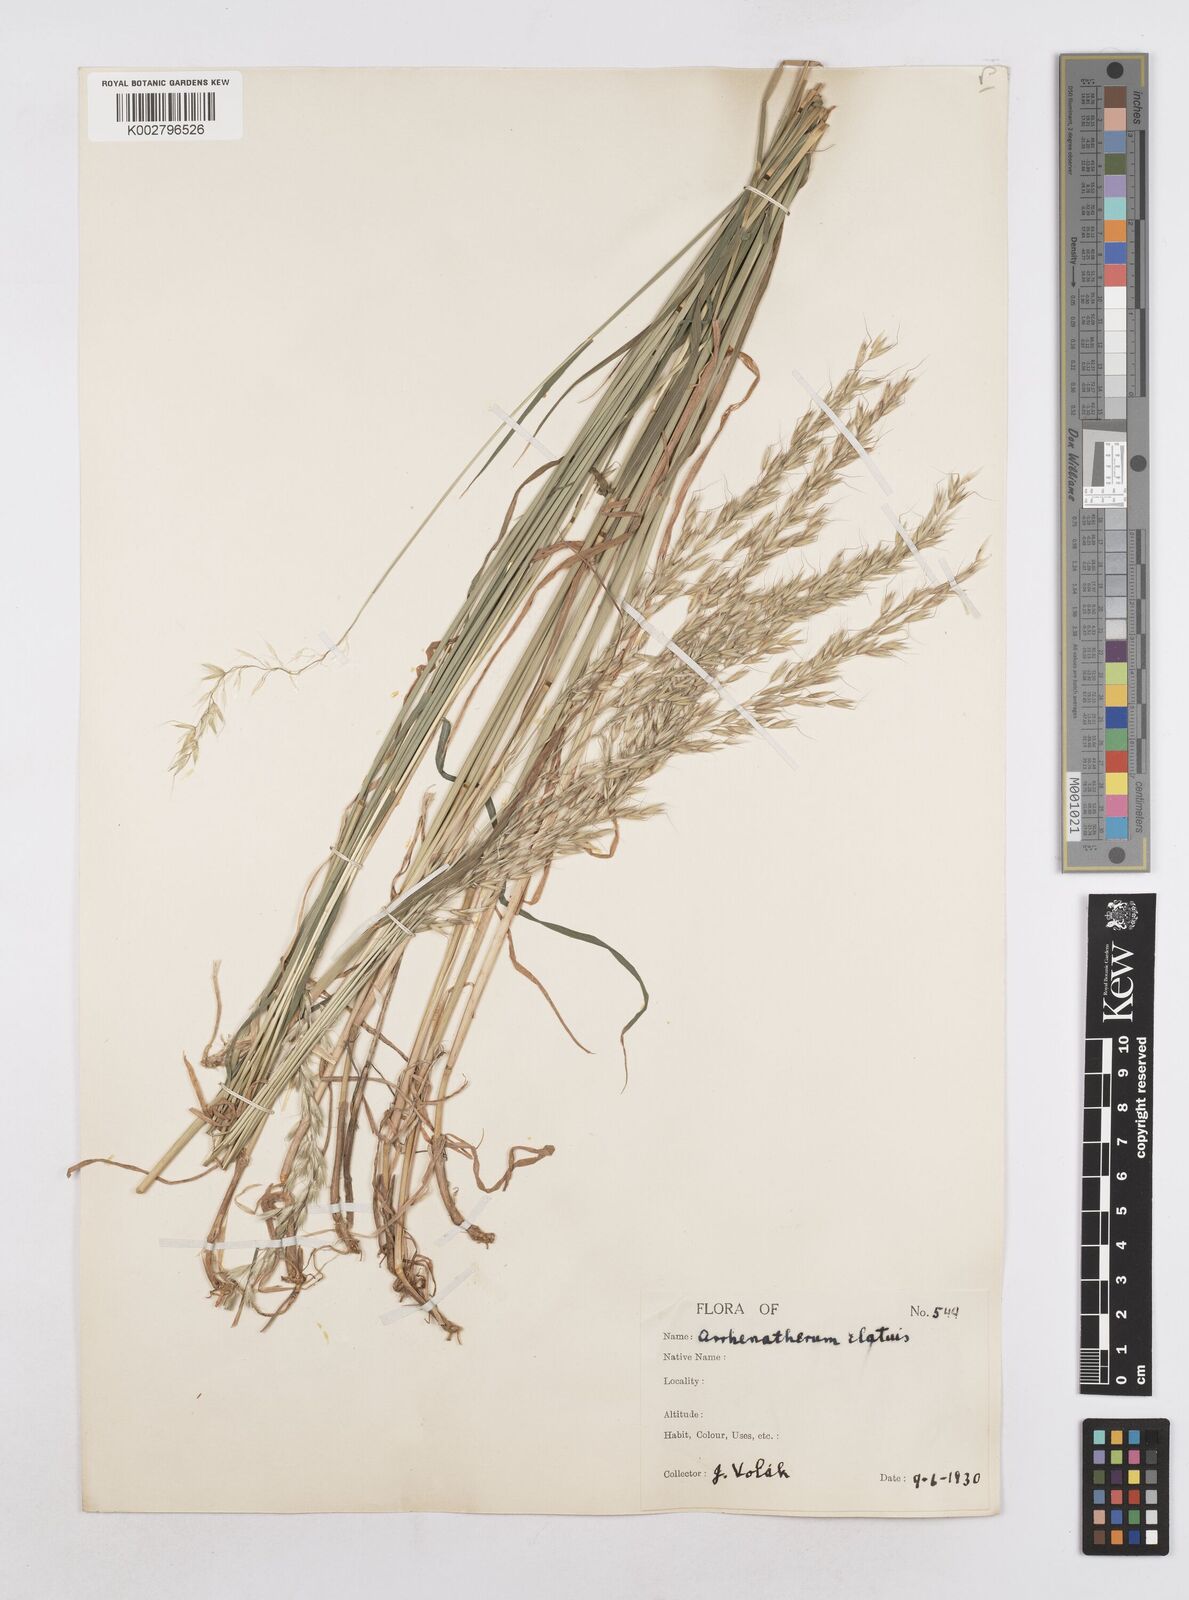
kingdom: Plantae
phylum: Tracheophyta
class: Liliopsida
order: Poales
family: Poaceae
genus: Arrhenatherum
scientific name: Arrhenatherum elatius
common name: Tall oatgrass
